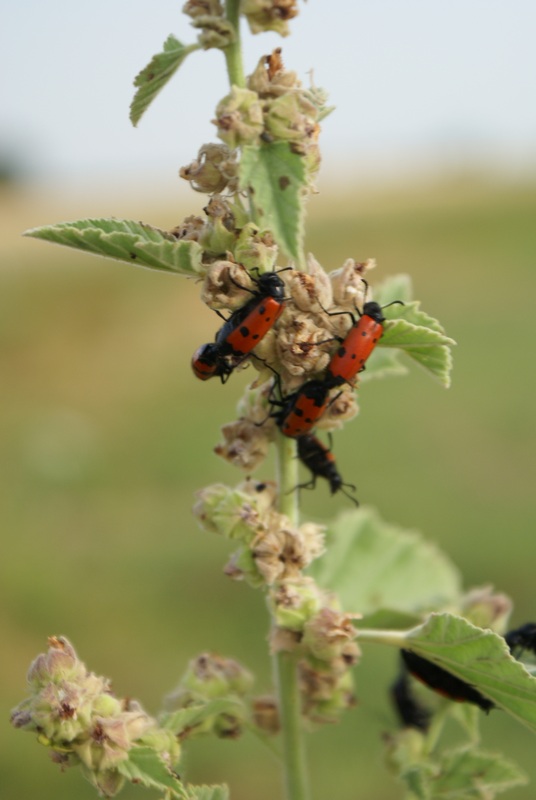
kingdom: Plantae
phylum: Tracheophyta
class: Magnoliopsida
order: Malvales
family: Malvaceae
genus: Althaea
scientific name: Althaea officinalis
